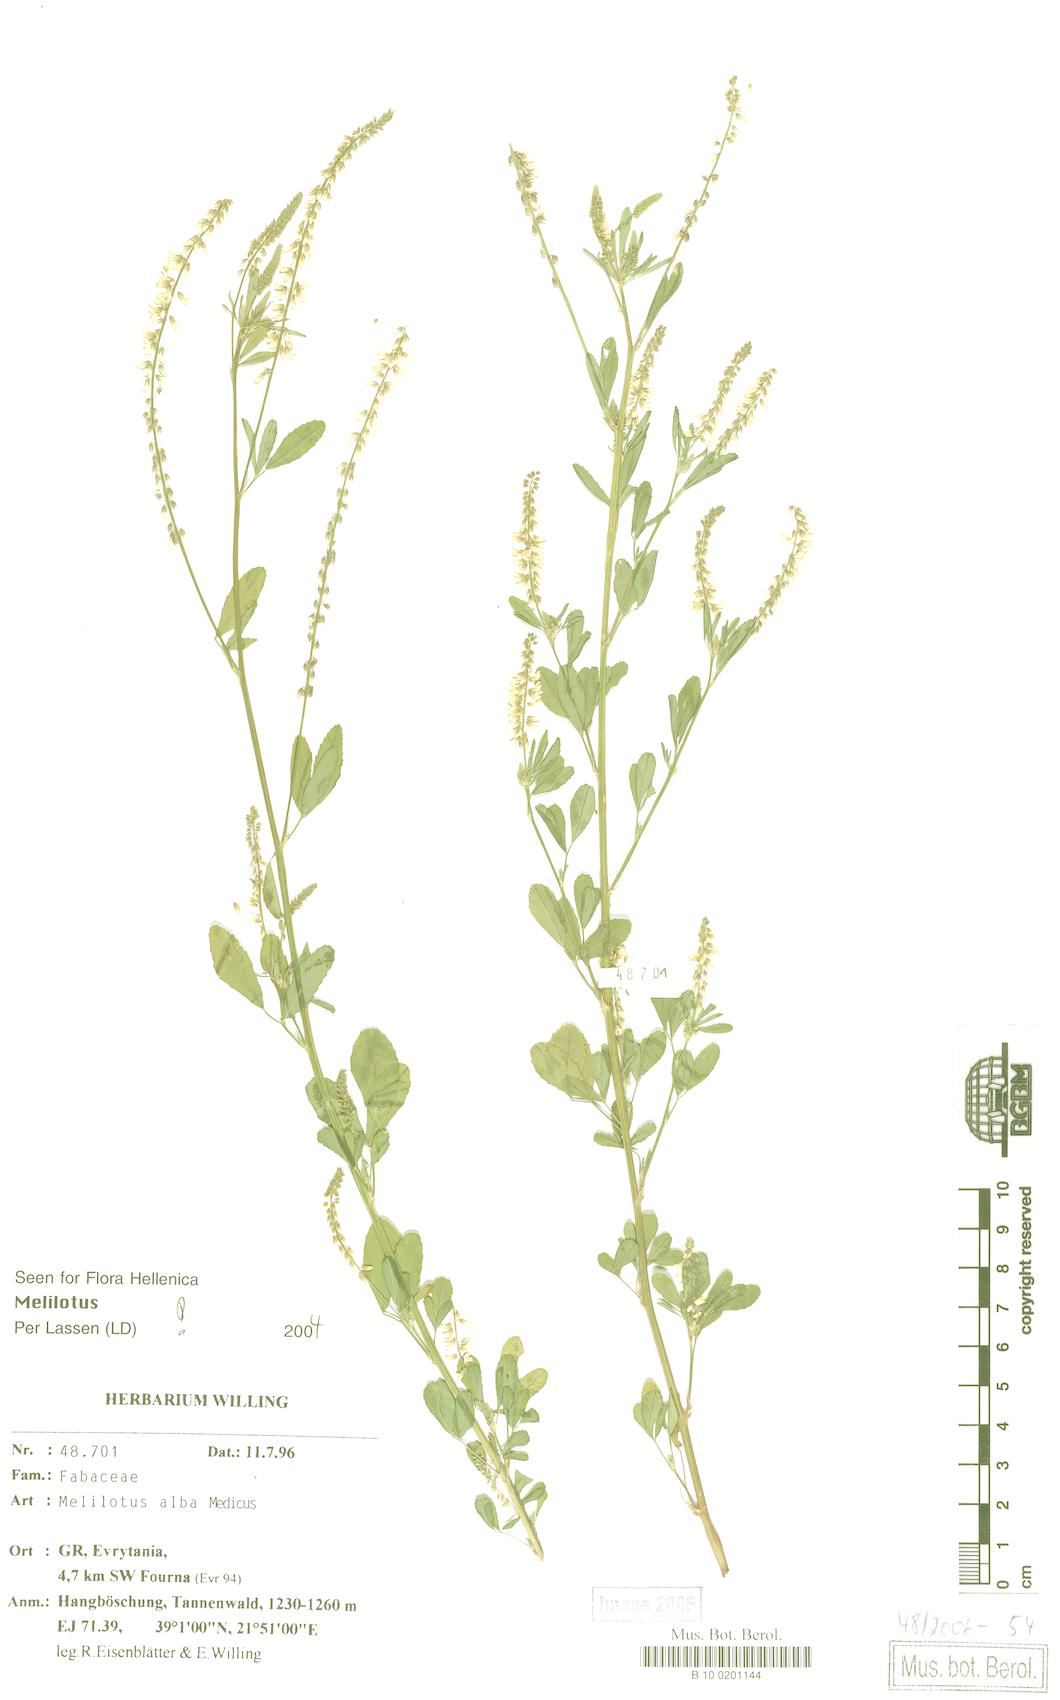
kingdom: Plantae
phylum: Tracheophyta
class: Magnoliopsida
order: Fabales
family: Fabaceae
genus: Melilotus
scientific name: Melilotus albus
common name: White melilot
